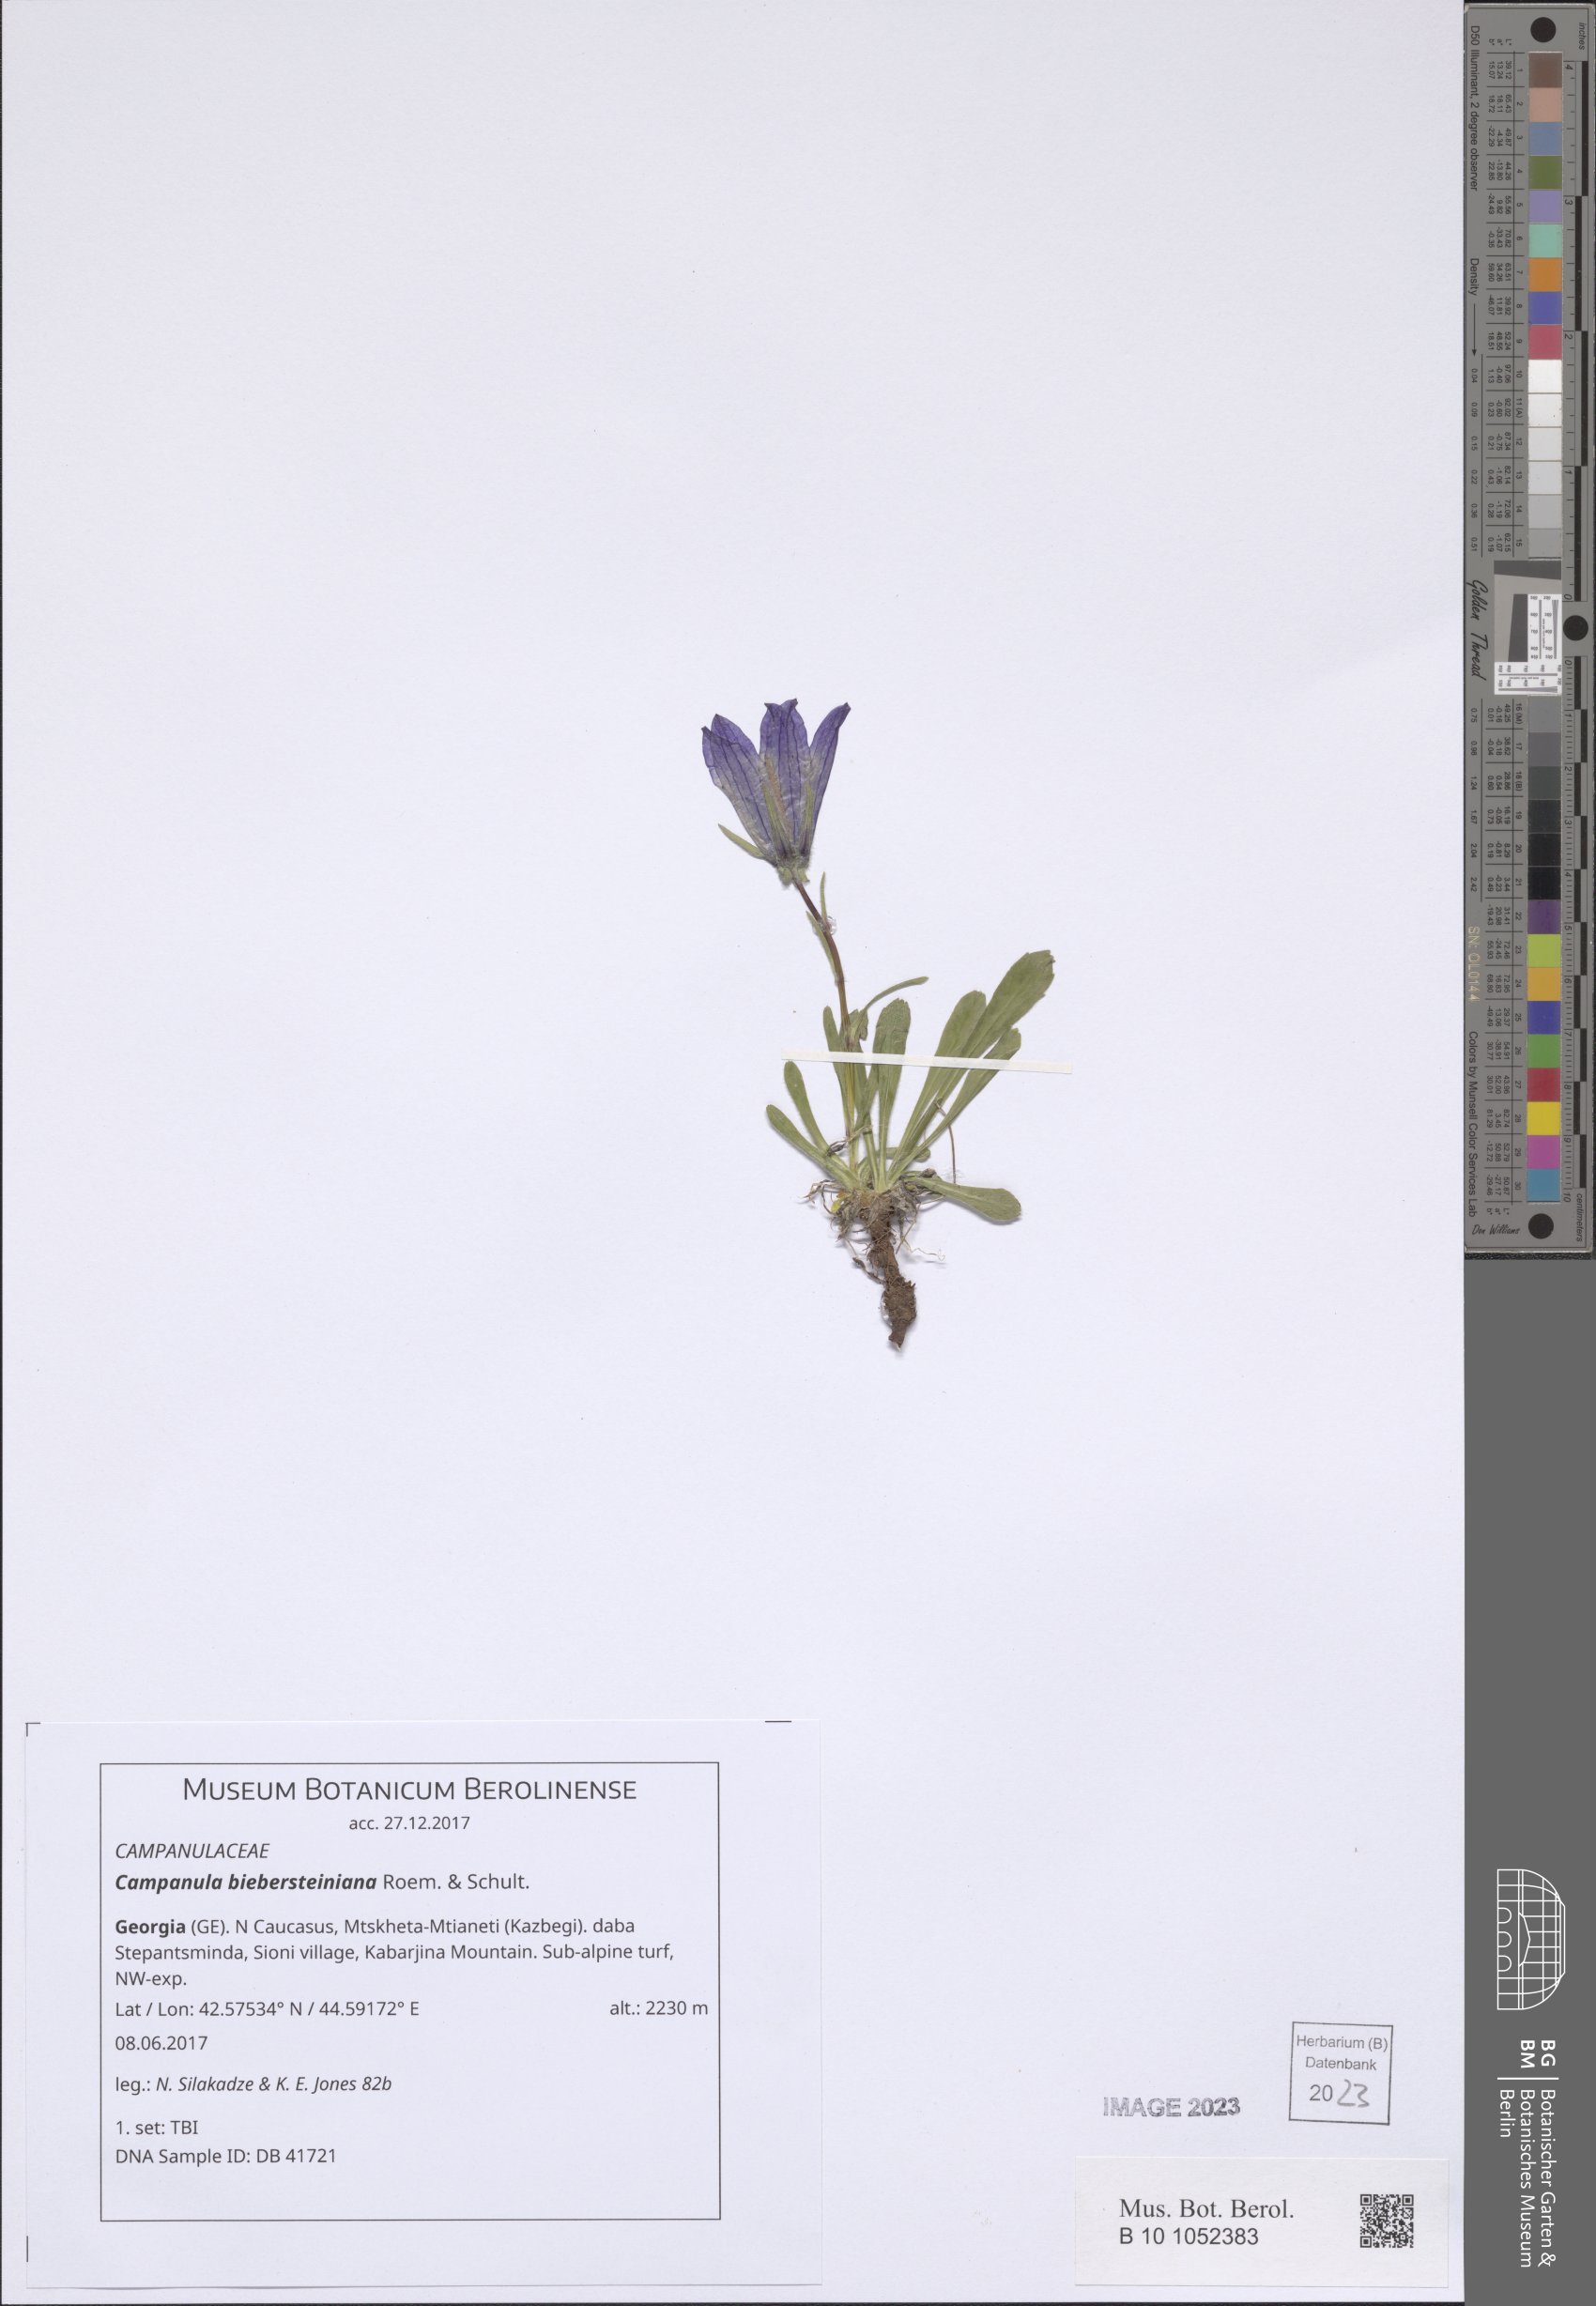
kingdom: Plantae
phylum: Tracheophyta
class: Magnoliopsida
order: Asterales
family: Campanulaceae
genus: Campanula
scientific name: Campanula tridentata
